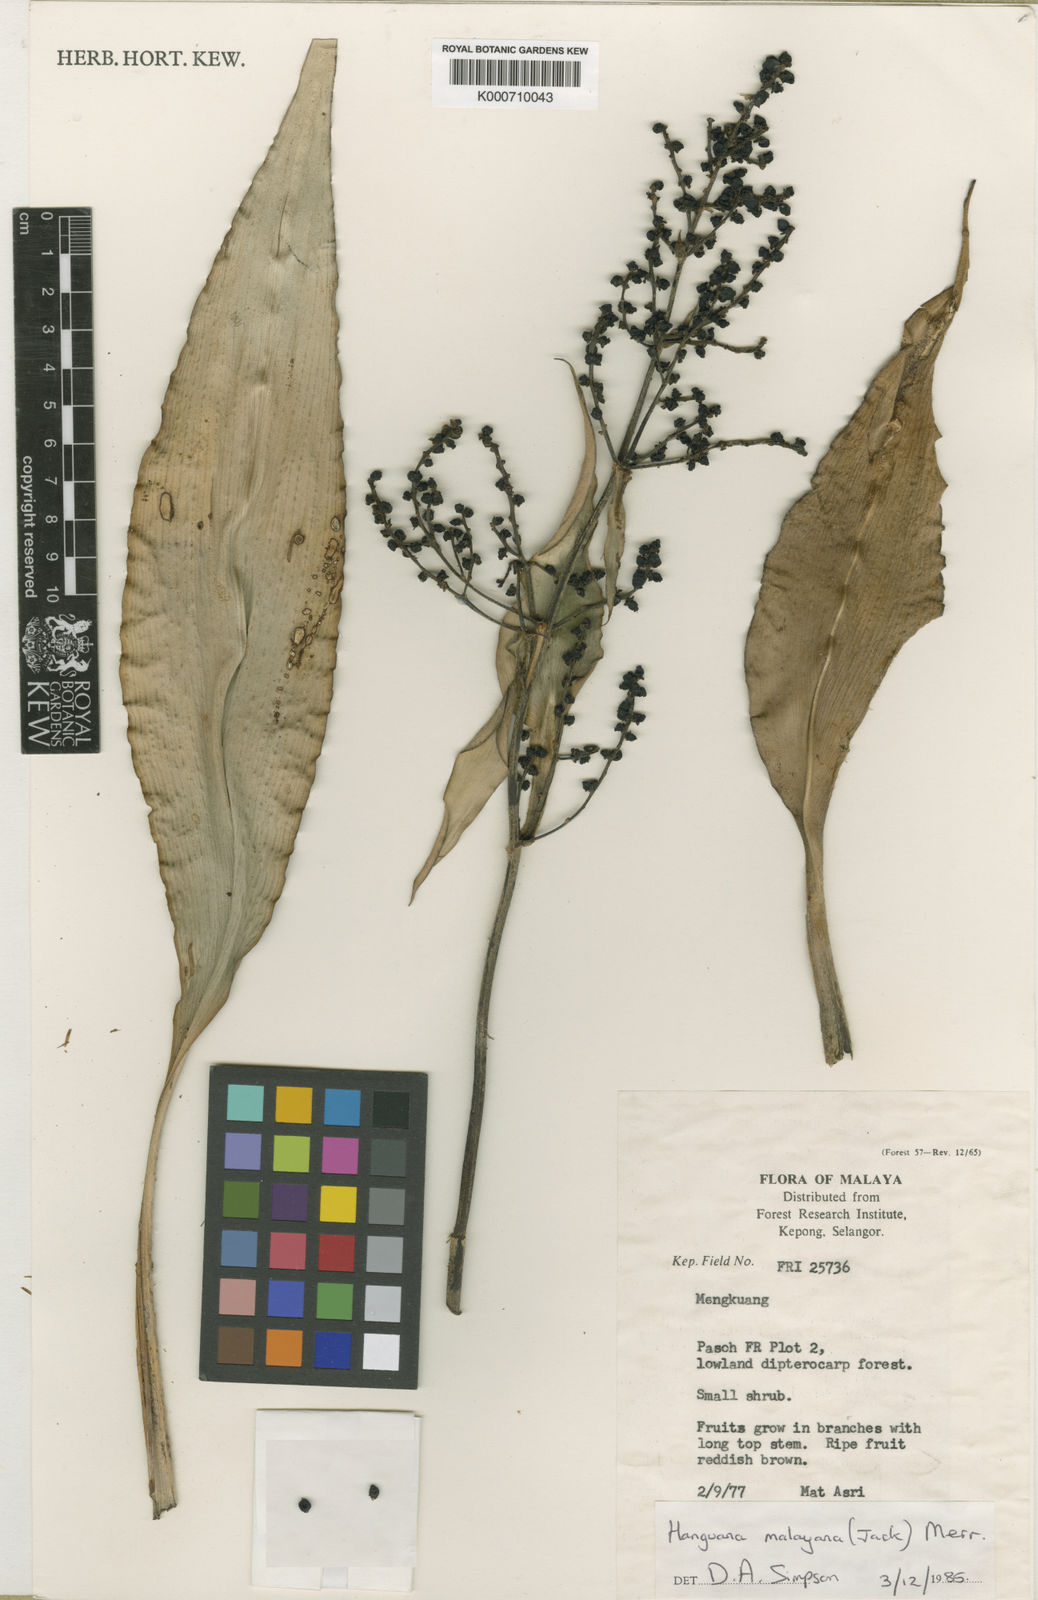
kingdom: Plantae
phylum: Tracheophyta
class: Liliopsida
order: Commelinales
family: Hanguanaceae
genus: Hanguana
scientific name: Hanguana malayana
